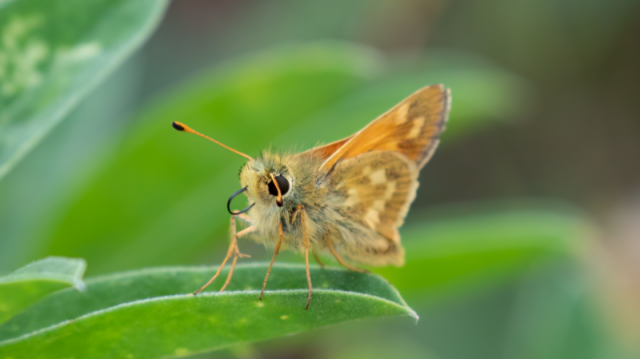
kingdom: Animalia
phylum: Arthropoda
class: Insecta
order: Lepidoptera
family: Hesperiidae
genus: Polites
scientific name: Polites
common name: Long Dash Skipper
